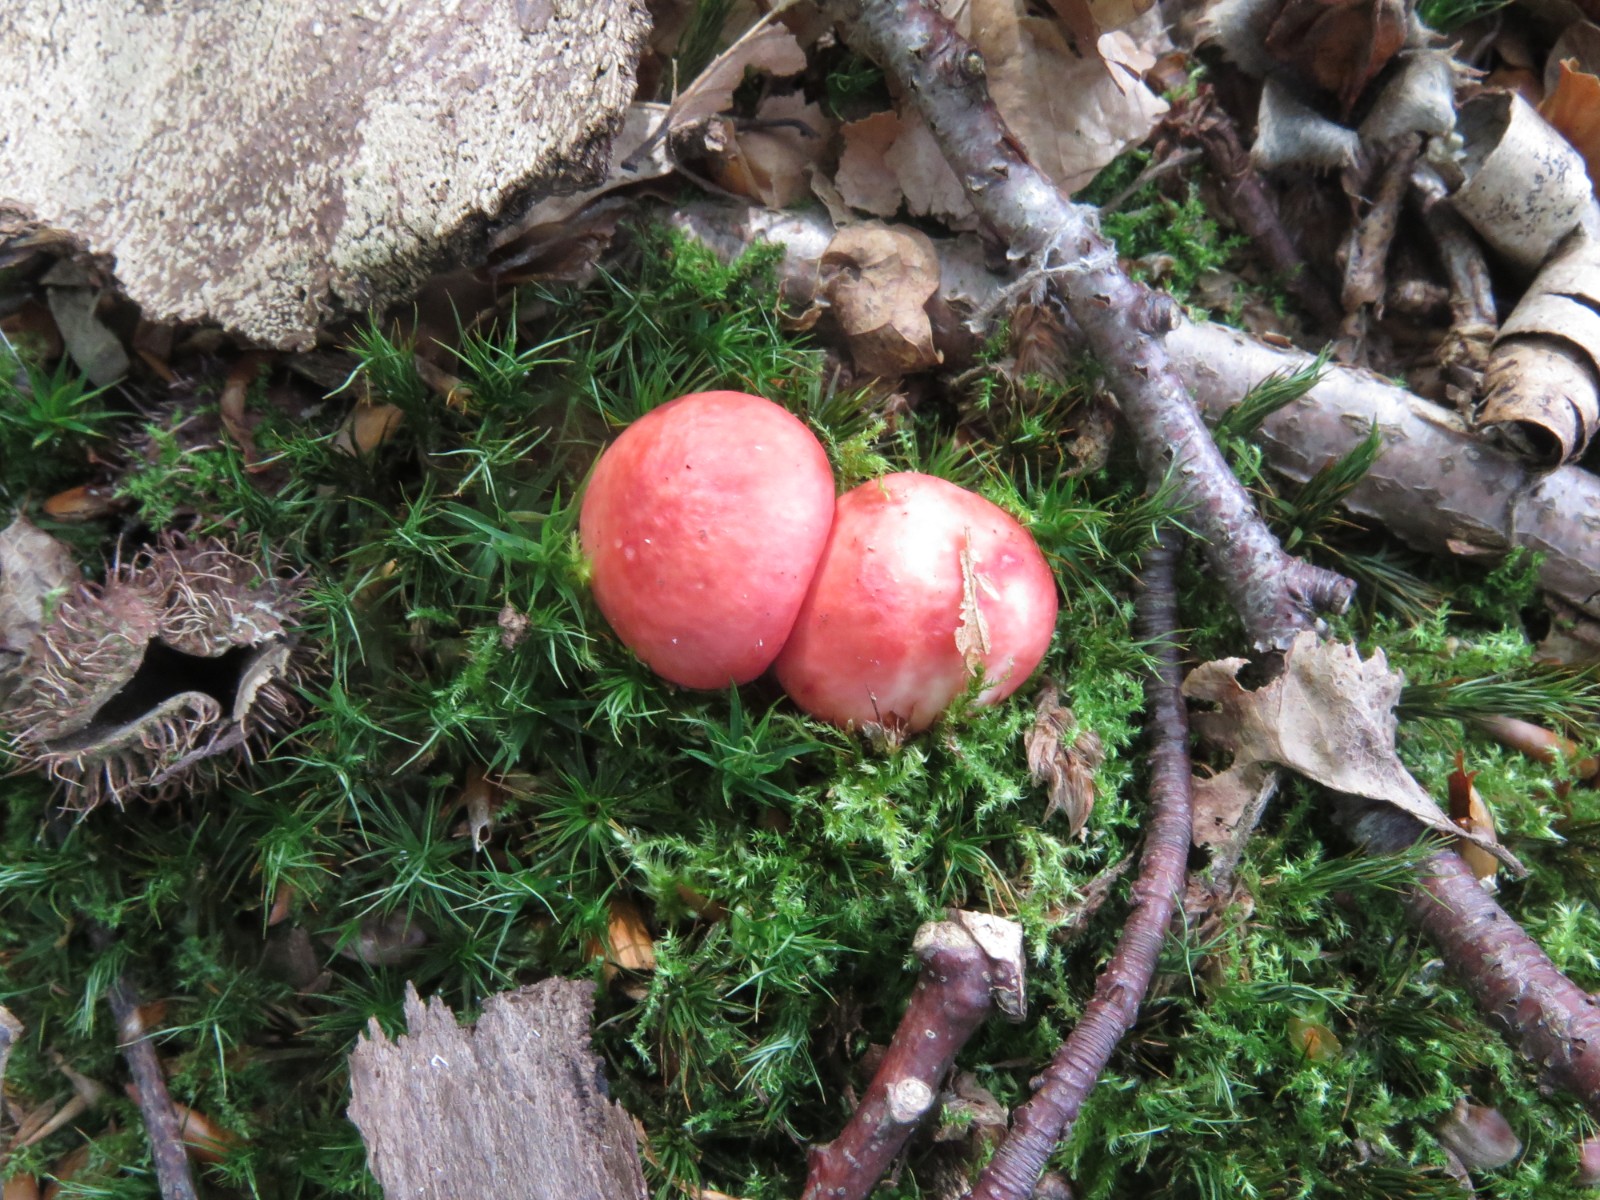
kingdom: Fungi
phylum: Basidiomycota
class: Agaricomycetes
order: Russulales
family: Russulaceae
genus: Russula
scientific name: Russula nobilis
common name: lille gift-skørhat
